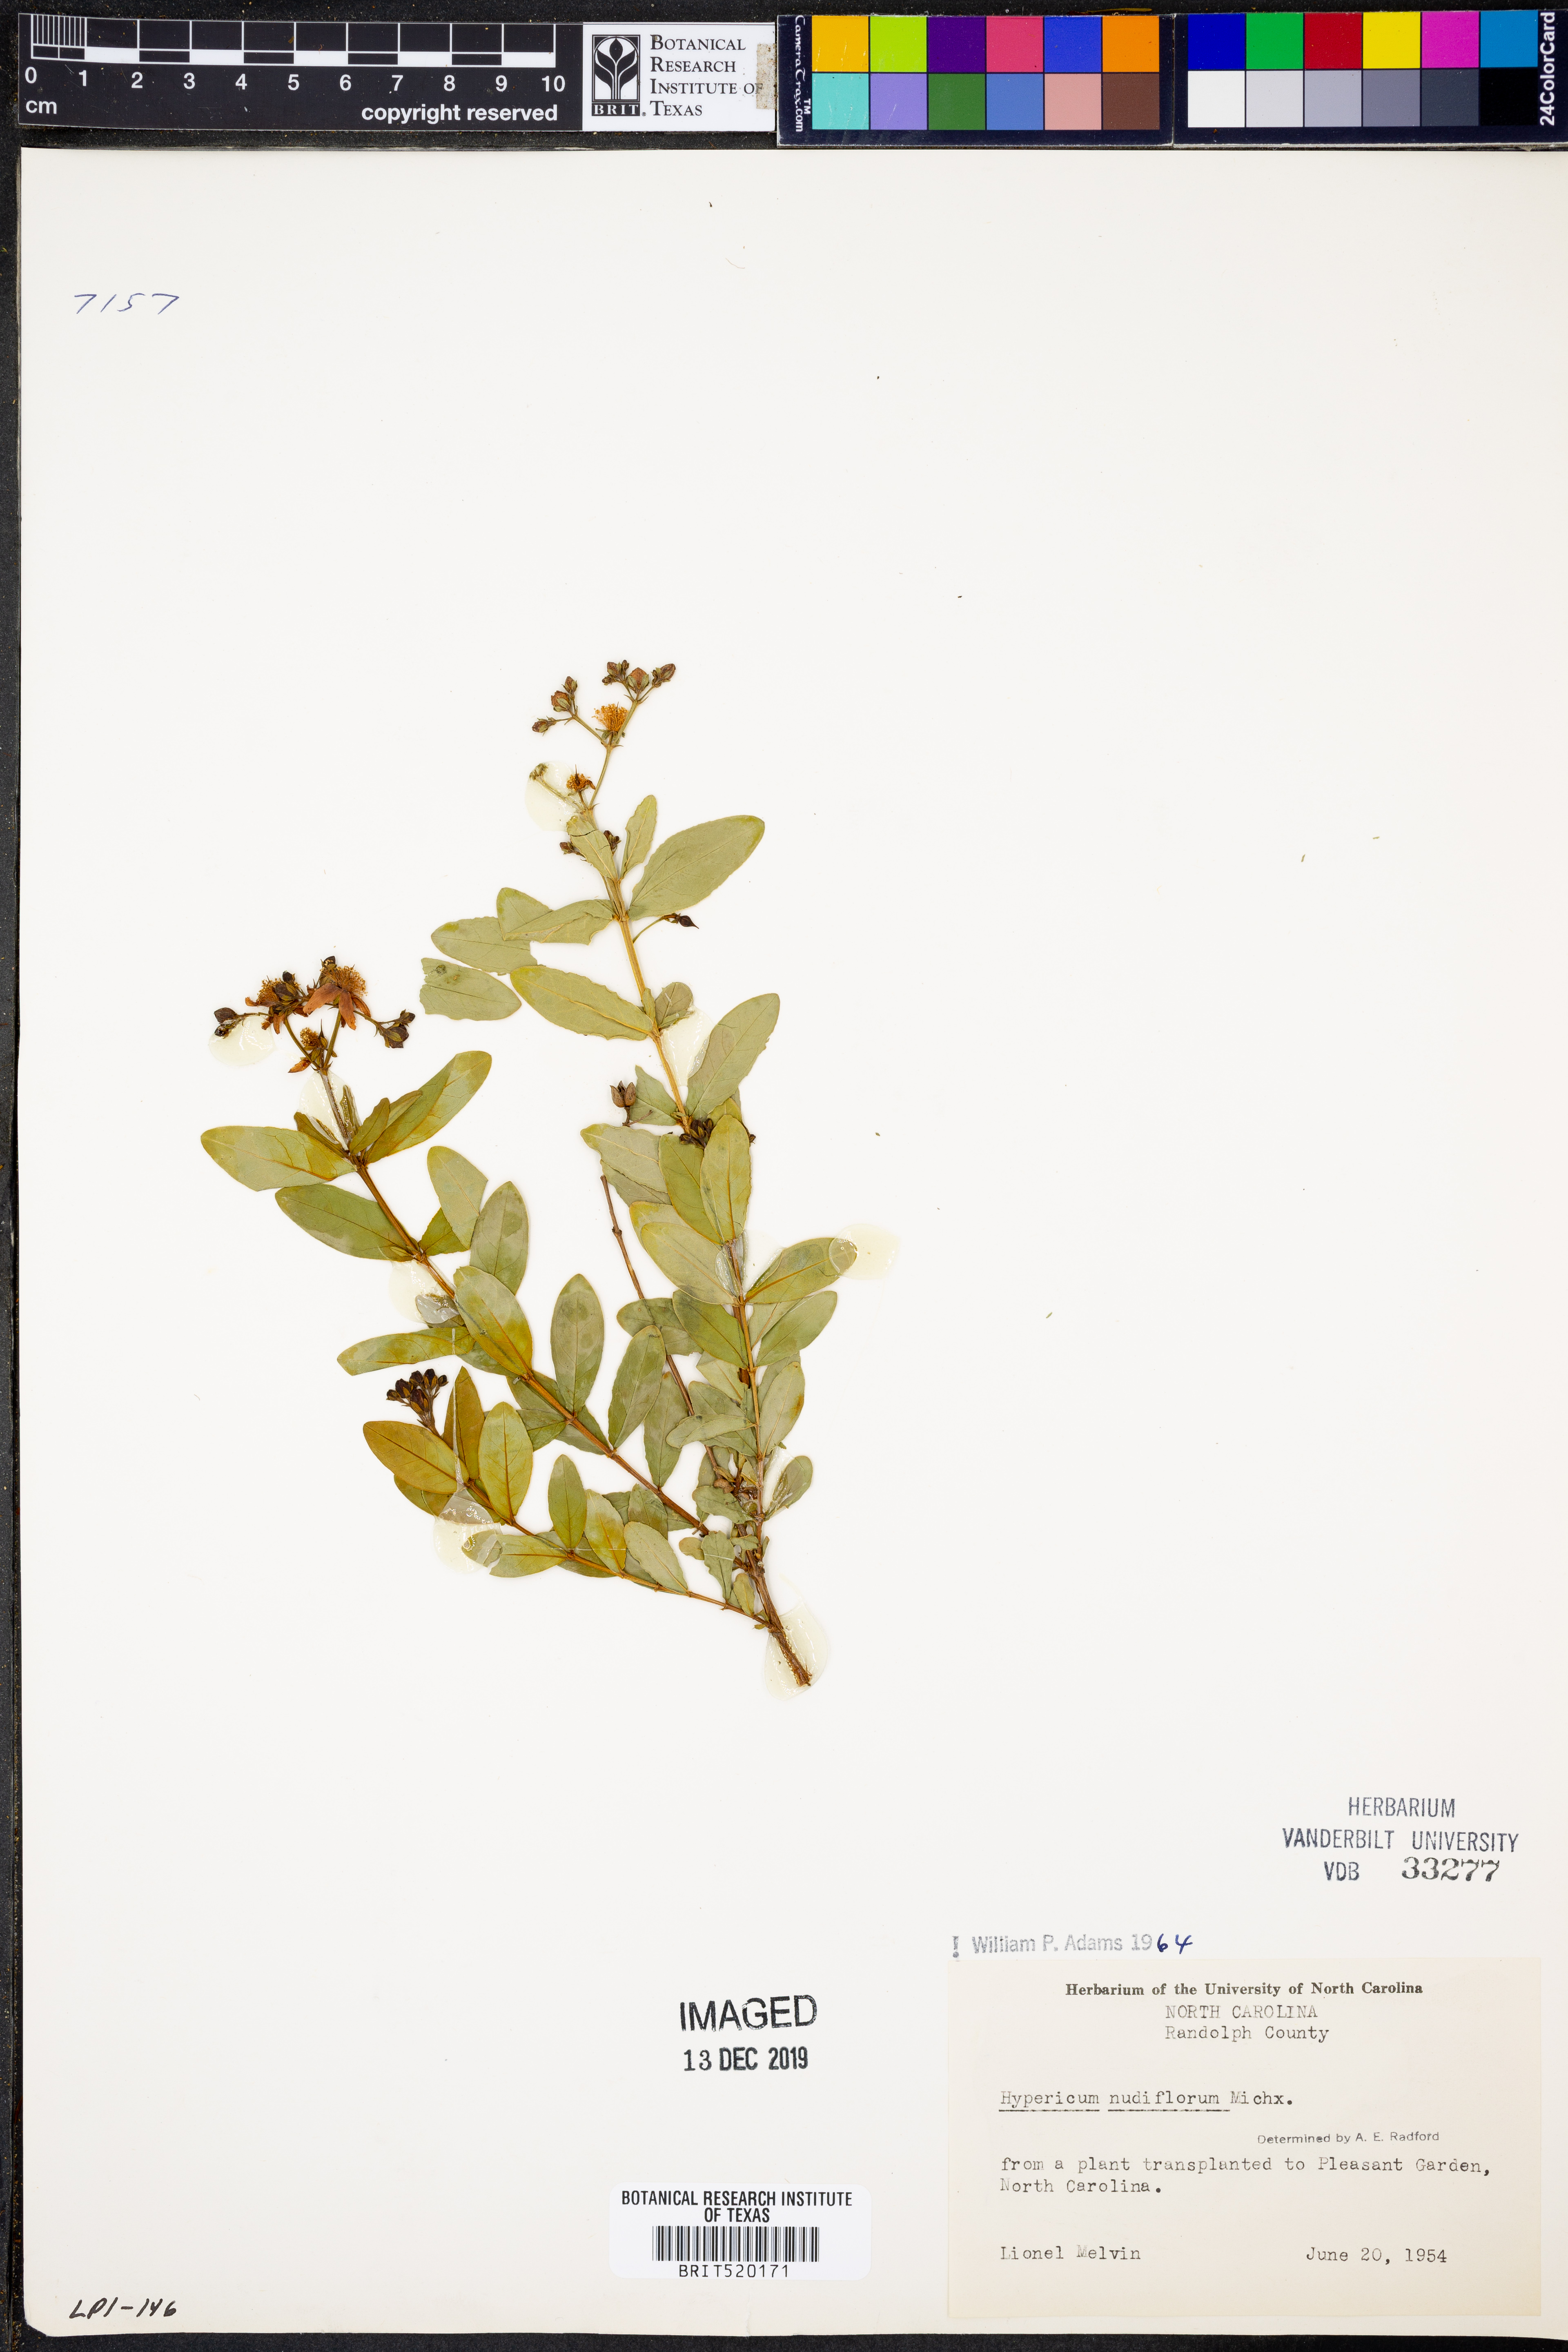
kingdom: Plantae
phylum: Tracheophyta
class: Magnoliopsida
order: Malpighiales
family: Hypericaceae
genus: Hypericum
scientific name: Hypericum nudiflorum
